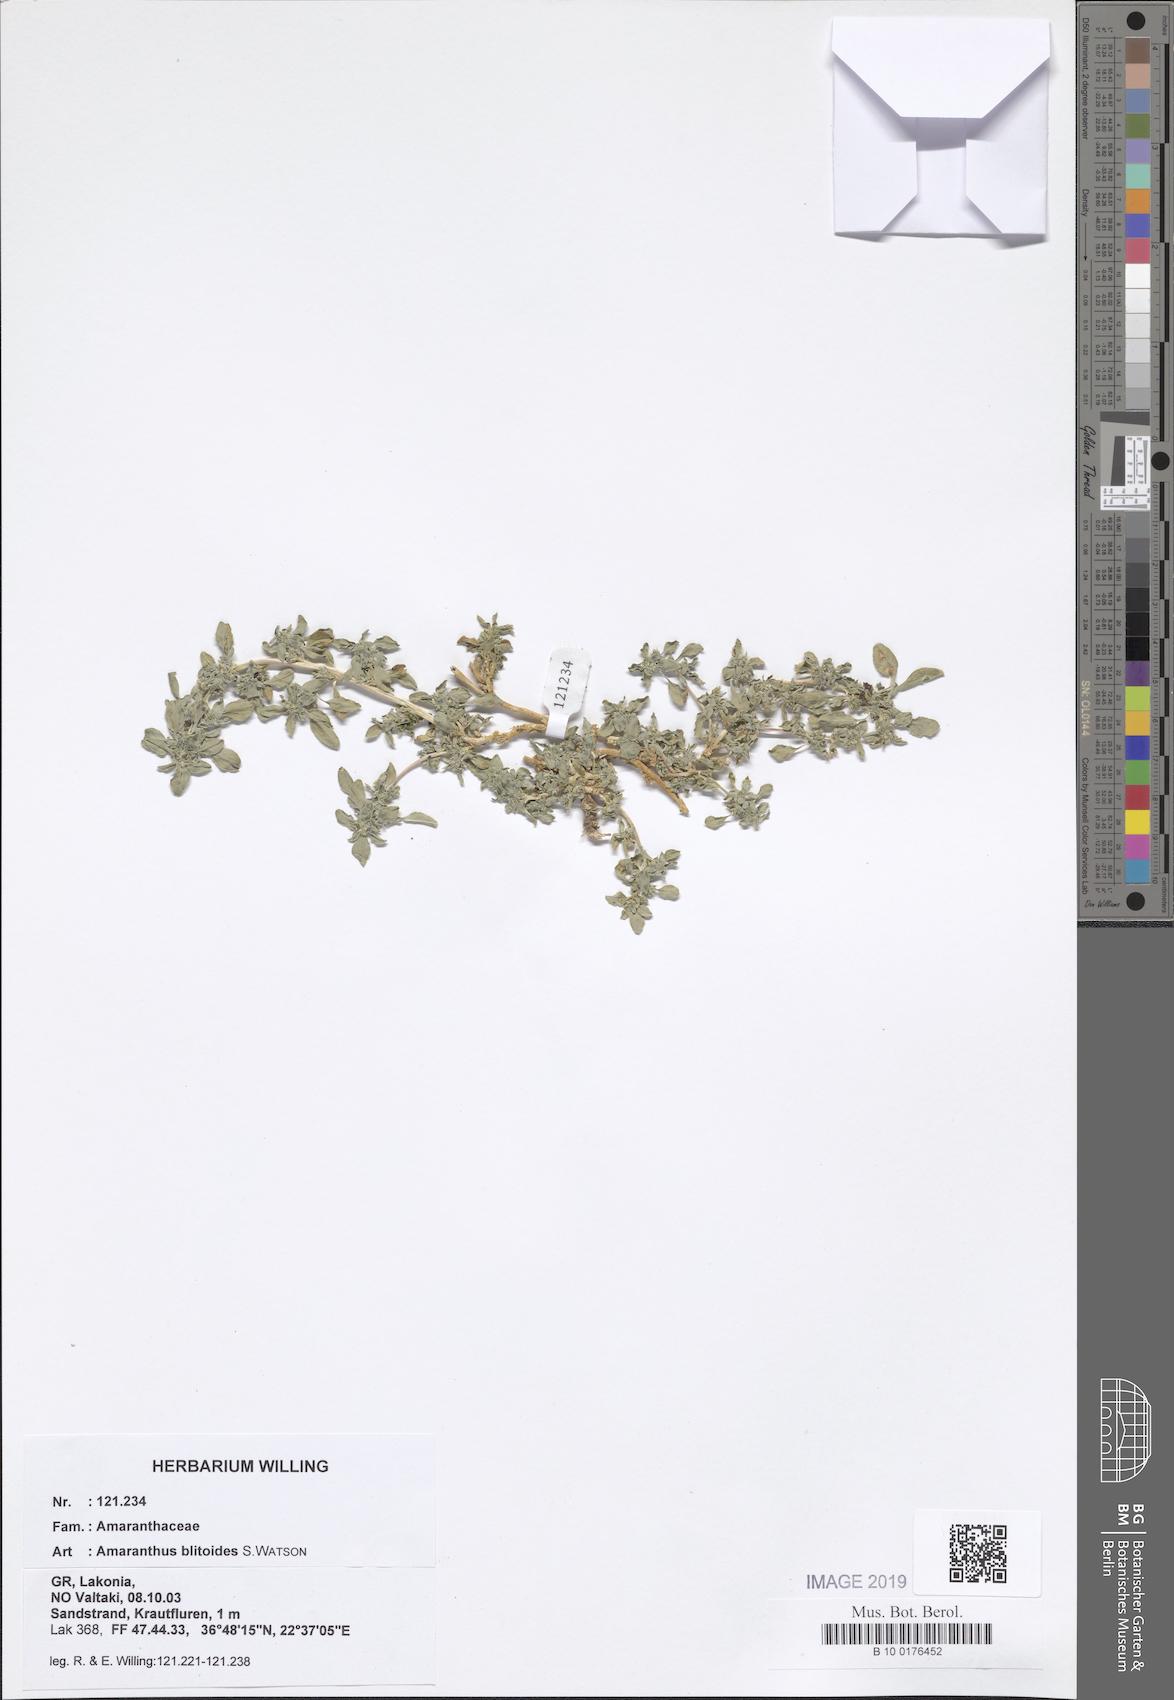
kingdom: Plantae
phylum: Tracheophyta
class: Magnoliopsida
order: Caryophyllales
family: Amaranthaceae
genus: Amaranthus
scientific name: Amaranthus blitoides
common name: Prostrate pigweed
